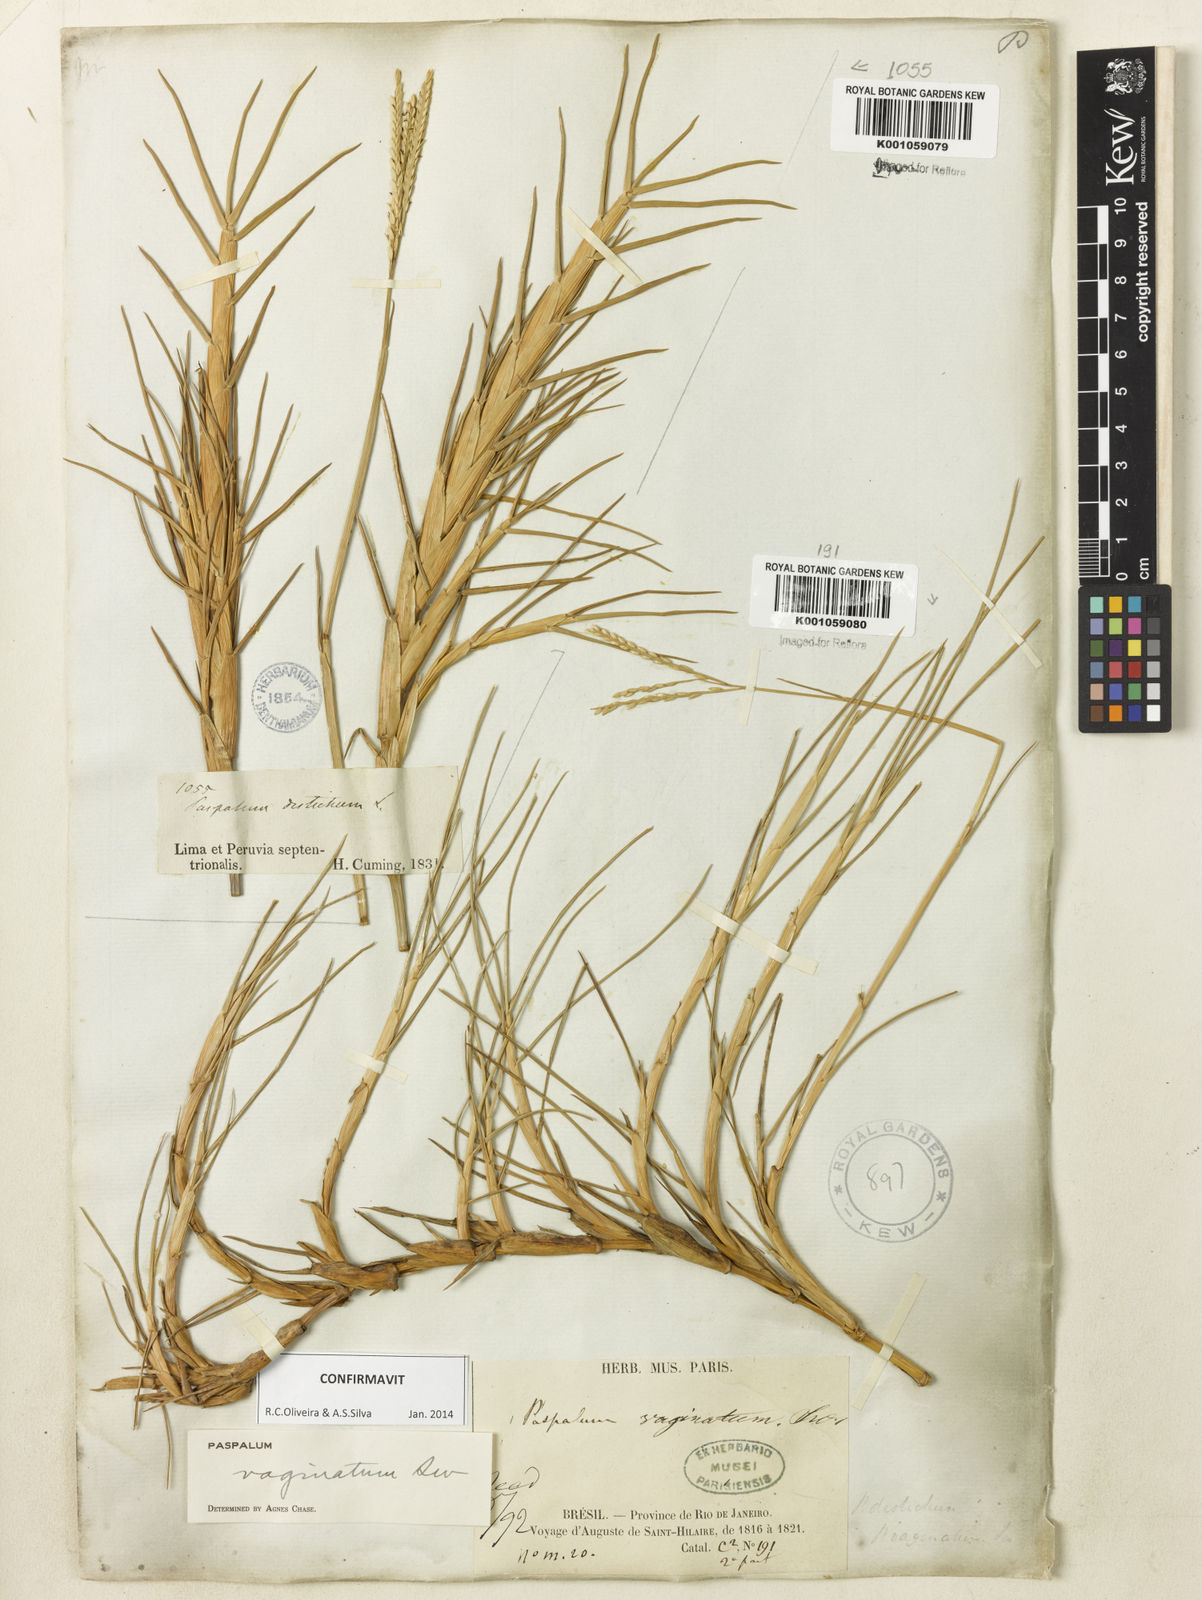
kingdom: Plantae
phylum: Tracheophyta
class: Liliopsida
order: Poales
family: Poaceae
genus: Paspalum
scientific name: Paspalum vaginatum
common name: Seashore paspalum
